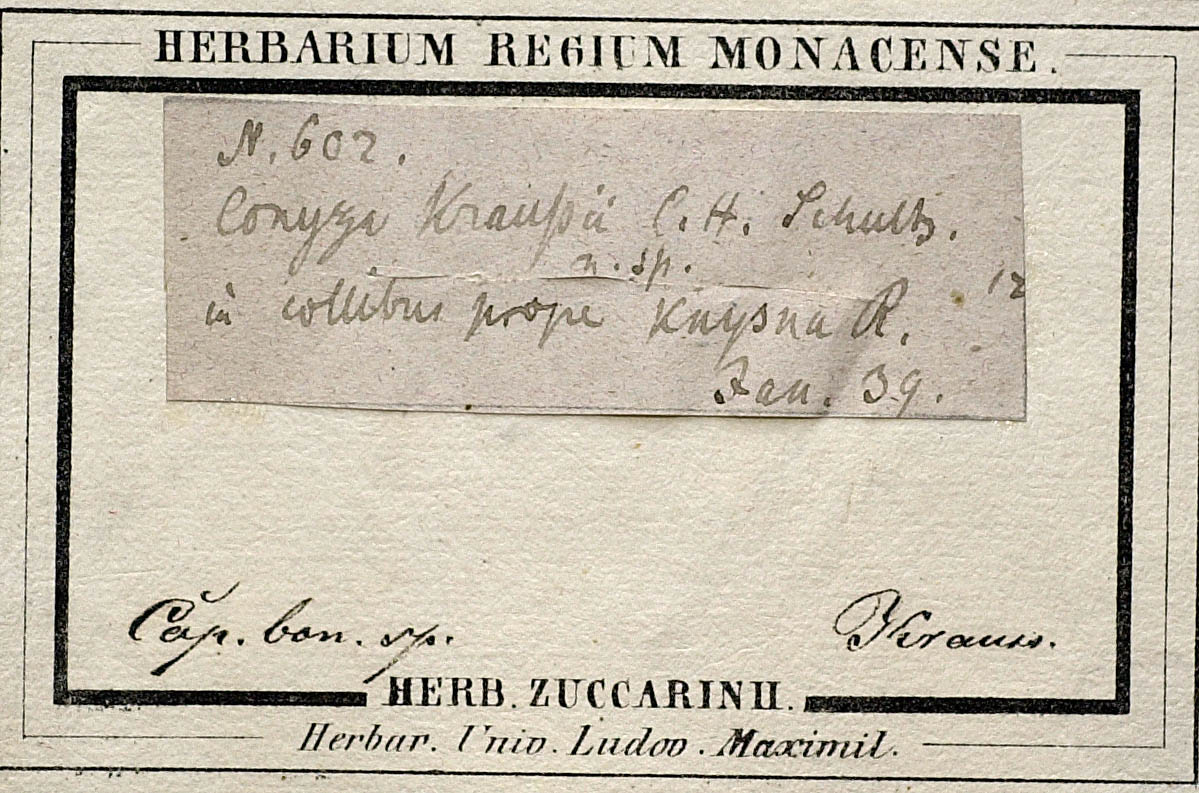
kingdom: Plantae
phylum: Tracheophyta
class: Magnoliopsida
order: Asterales
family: Asteraceae
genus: Pluchea
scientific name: Pluchea dioscoridis
